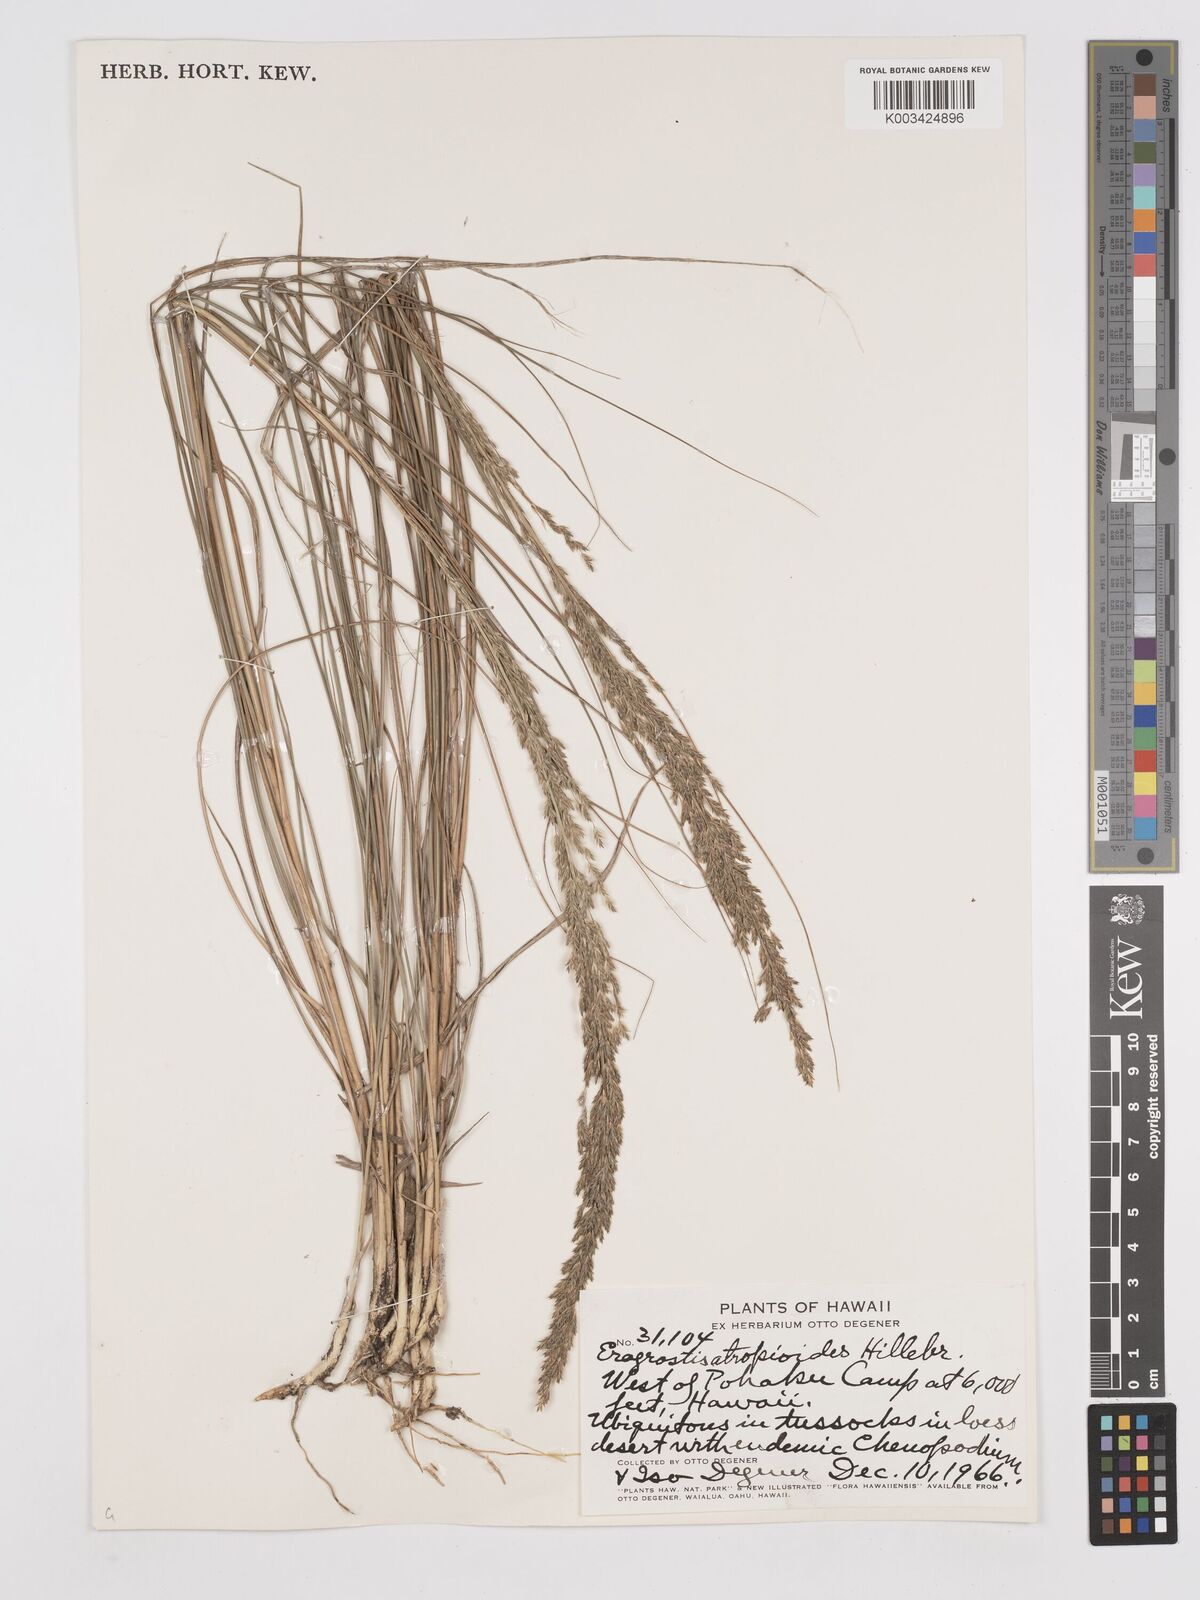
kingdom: Plantae
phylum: Tracheophyta
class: Liliopsida
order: Poales
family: Poaceae
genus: Eragrostis
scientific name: Eragrostis atropioides
